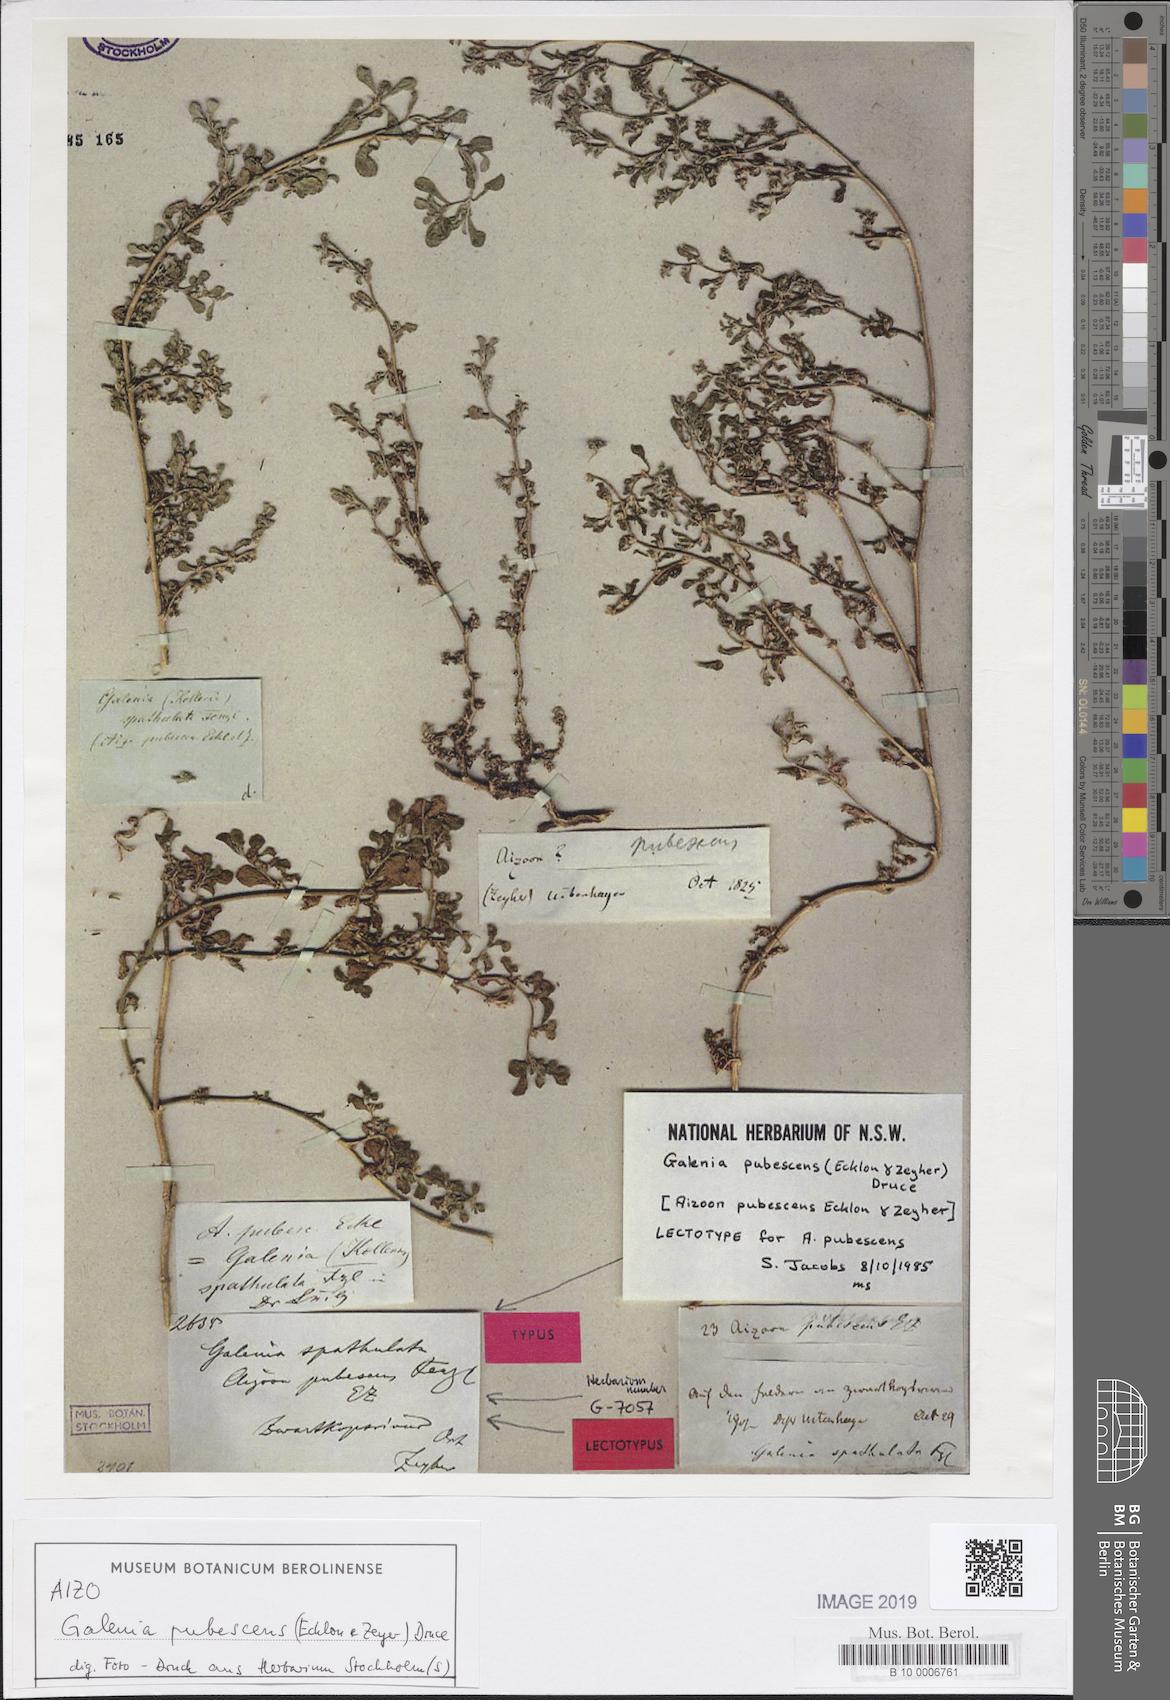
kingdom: Plantae
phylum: Tracheophyta
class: Magnoliopsida
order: Caryophyllales
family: Aizoaceae
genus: Aizoon
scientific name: Aizoon pubescens
